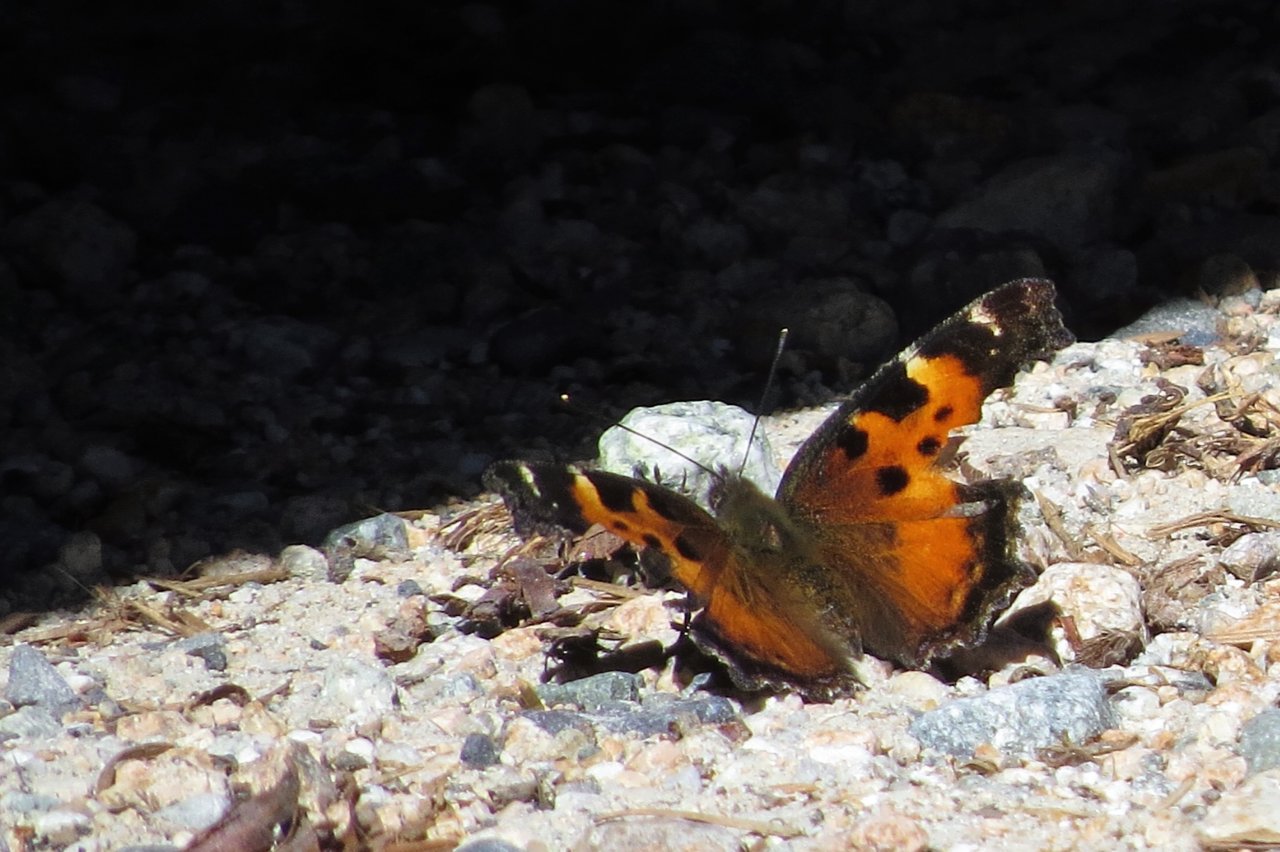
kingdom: Animalia
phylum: Arthropoda
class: Insecta
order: Lepidoptera
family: Nymphalidae
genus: Nymphalis
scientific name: Nymphalis californica
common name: California Tortoiseshell
